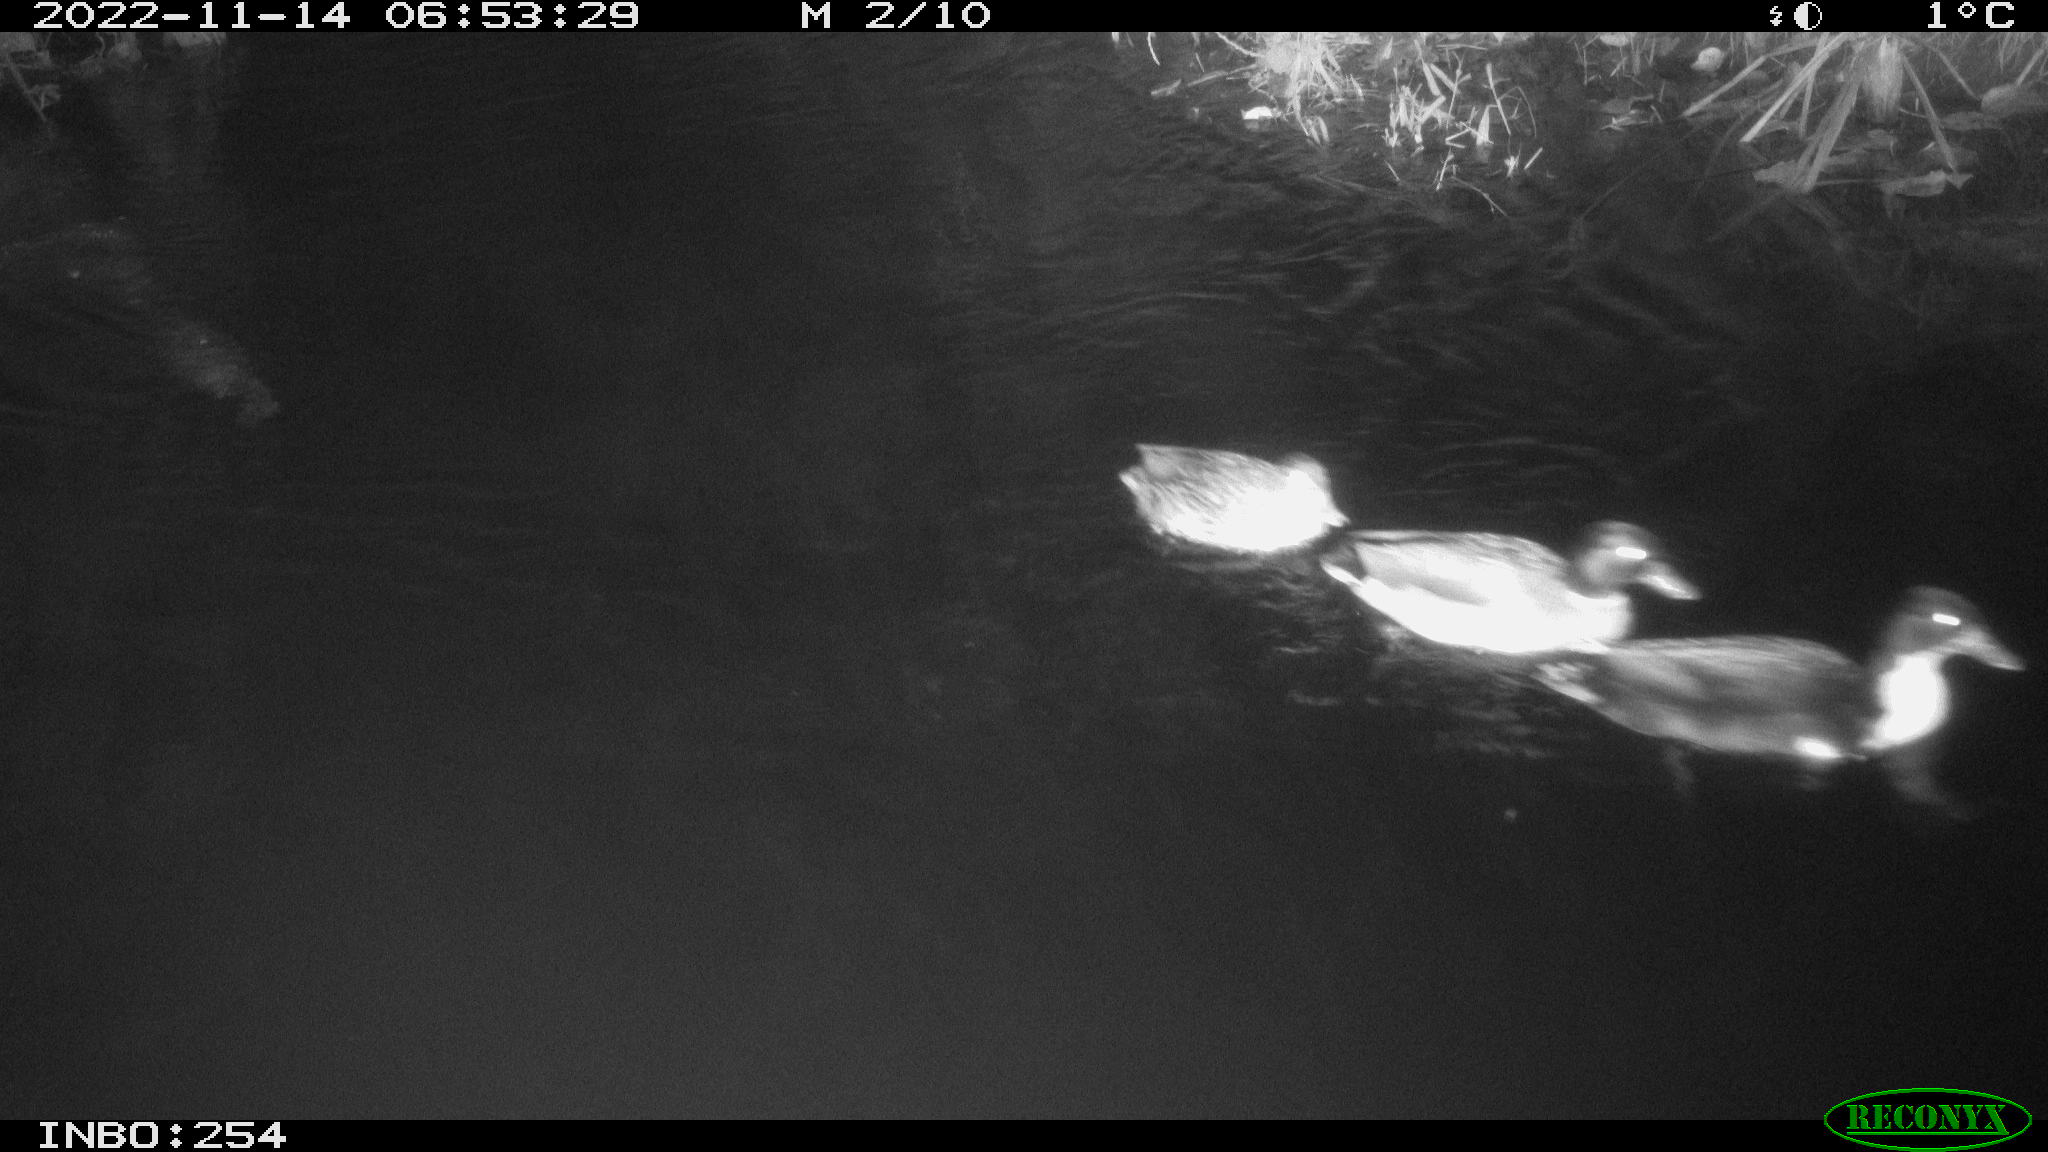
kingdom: Animalia
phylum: Chordata
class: Aves
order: Anseriformes
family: Anatidae
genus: Anas
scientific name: Anas
